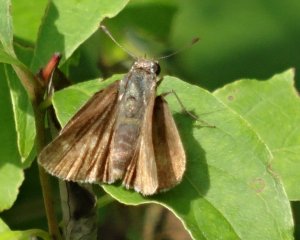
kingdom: Animalia
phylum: Arthropoda
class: Insecta
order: Lepidoptera
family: Hesperiidae
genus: Euphyes
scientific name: Euphyes vestris
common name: Dun Skipper
